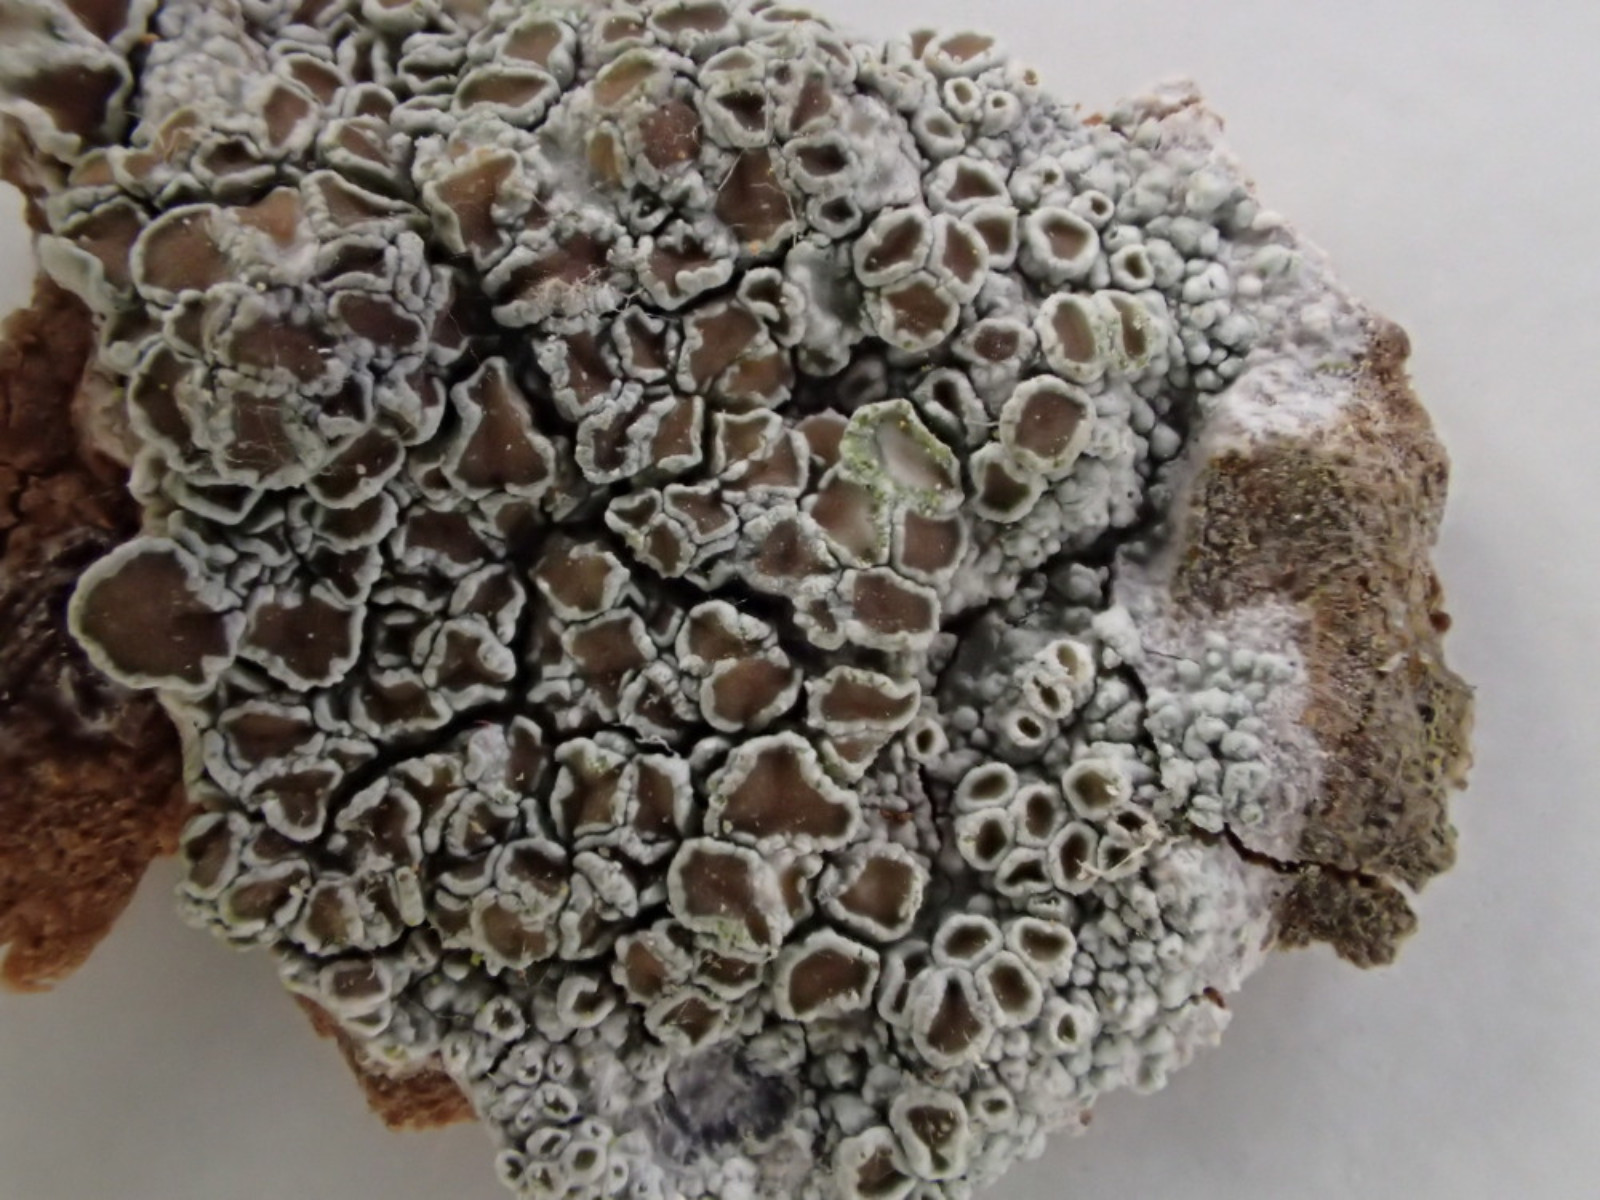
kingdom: Fungi
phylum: Ascomycota
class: Lecanoromycetes
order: Lecanorales
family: Lecanoraceae
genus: Lecanora
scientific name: Lecanora chlarotera
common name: brun kantskivelav
